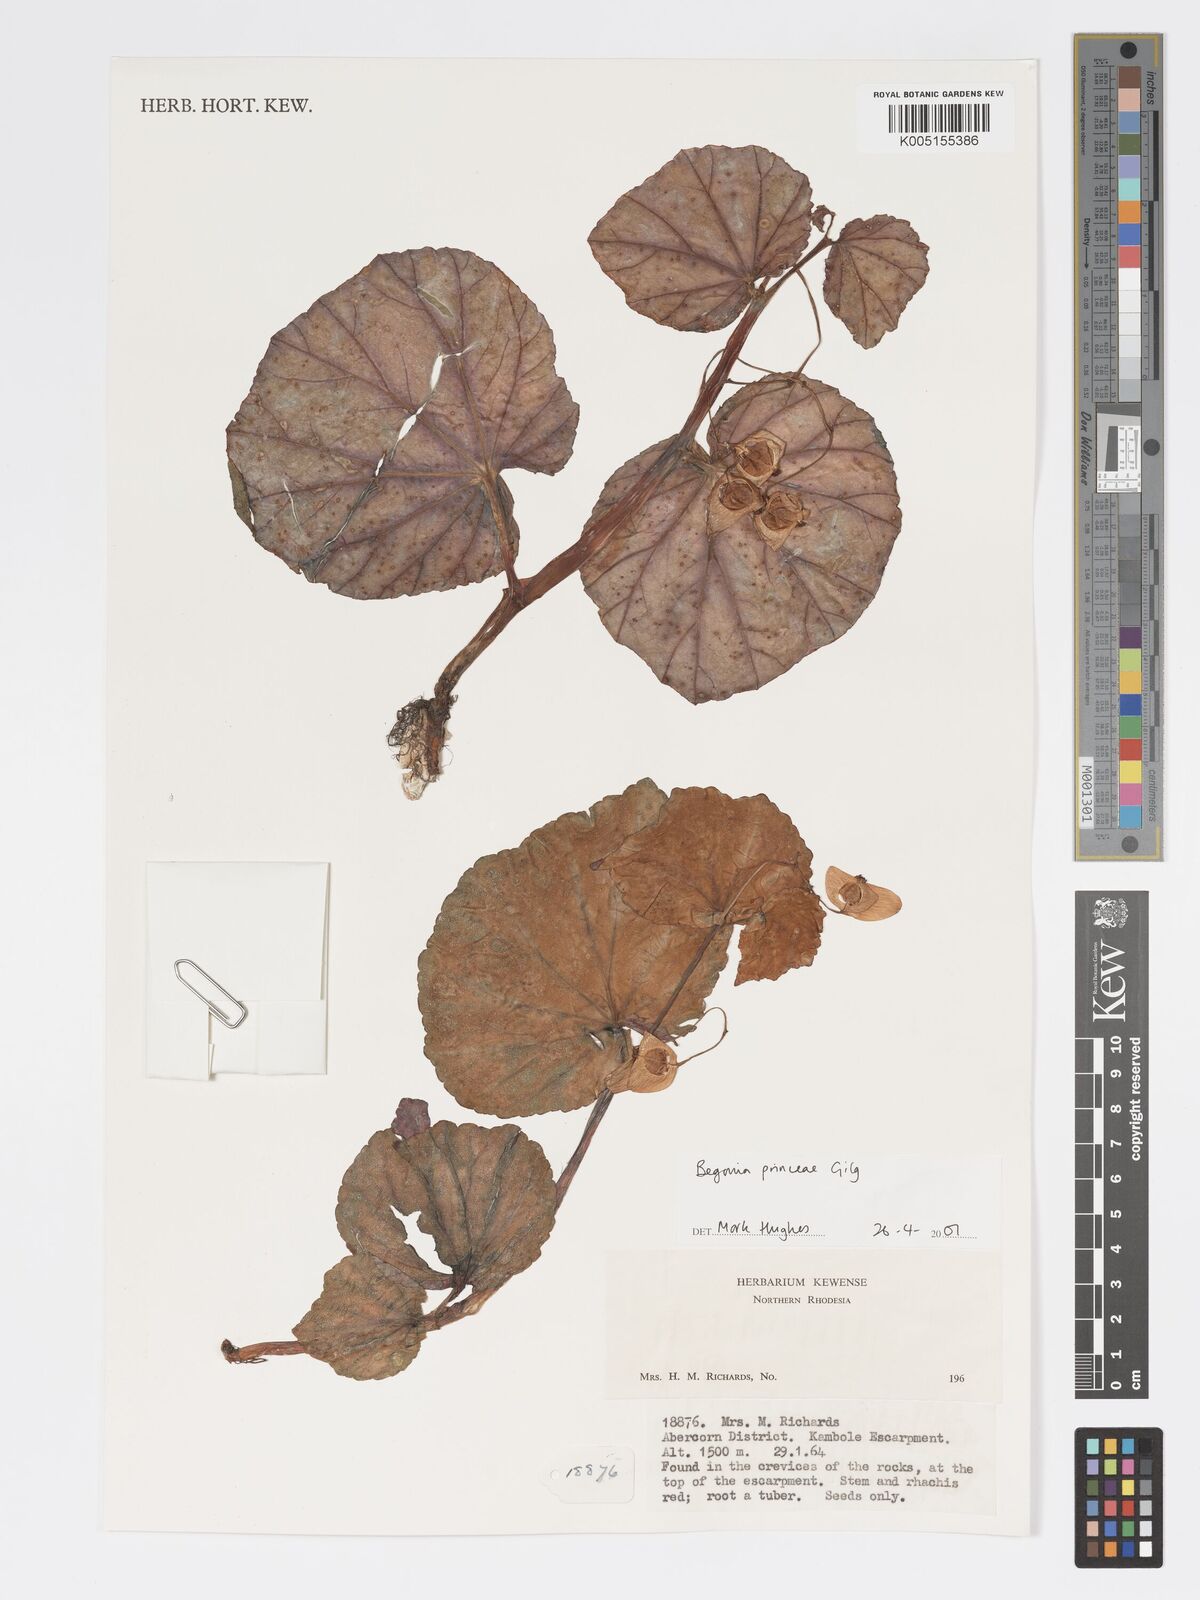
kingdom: Plantae
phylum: Tracheophyta
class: Magnoliopsida
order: Cucurbitales
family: Begoniaceae
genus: Begonia
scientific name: Begonia
